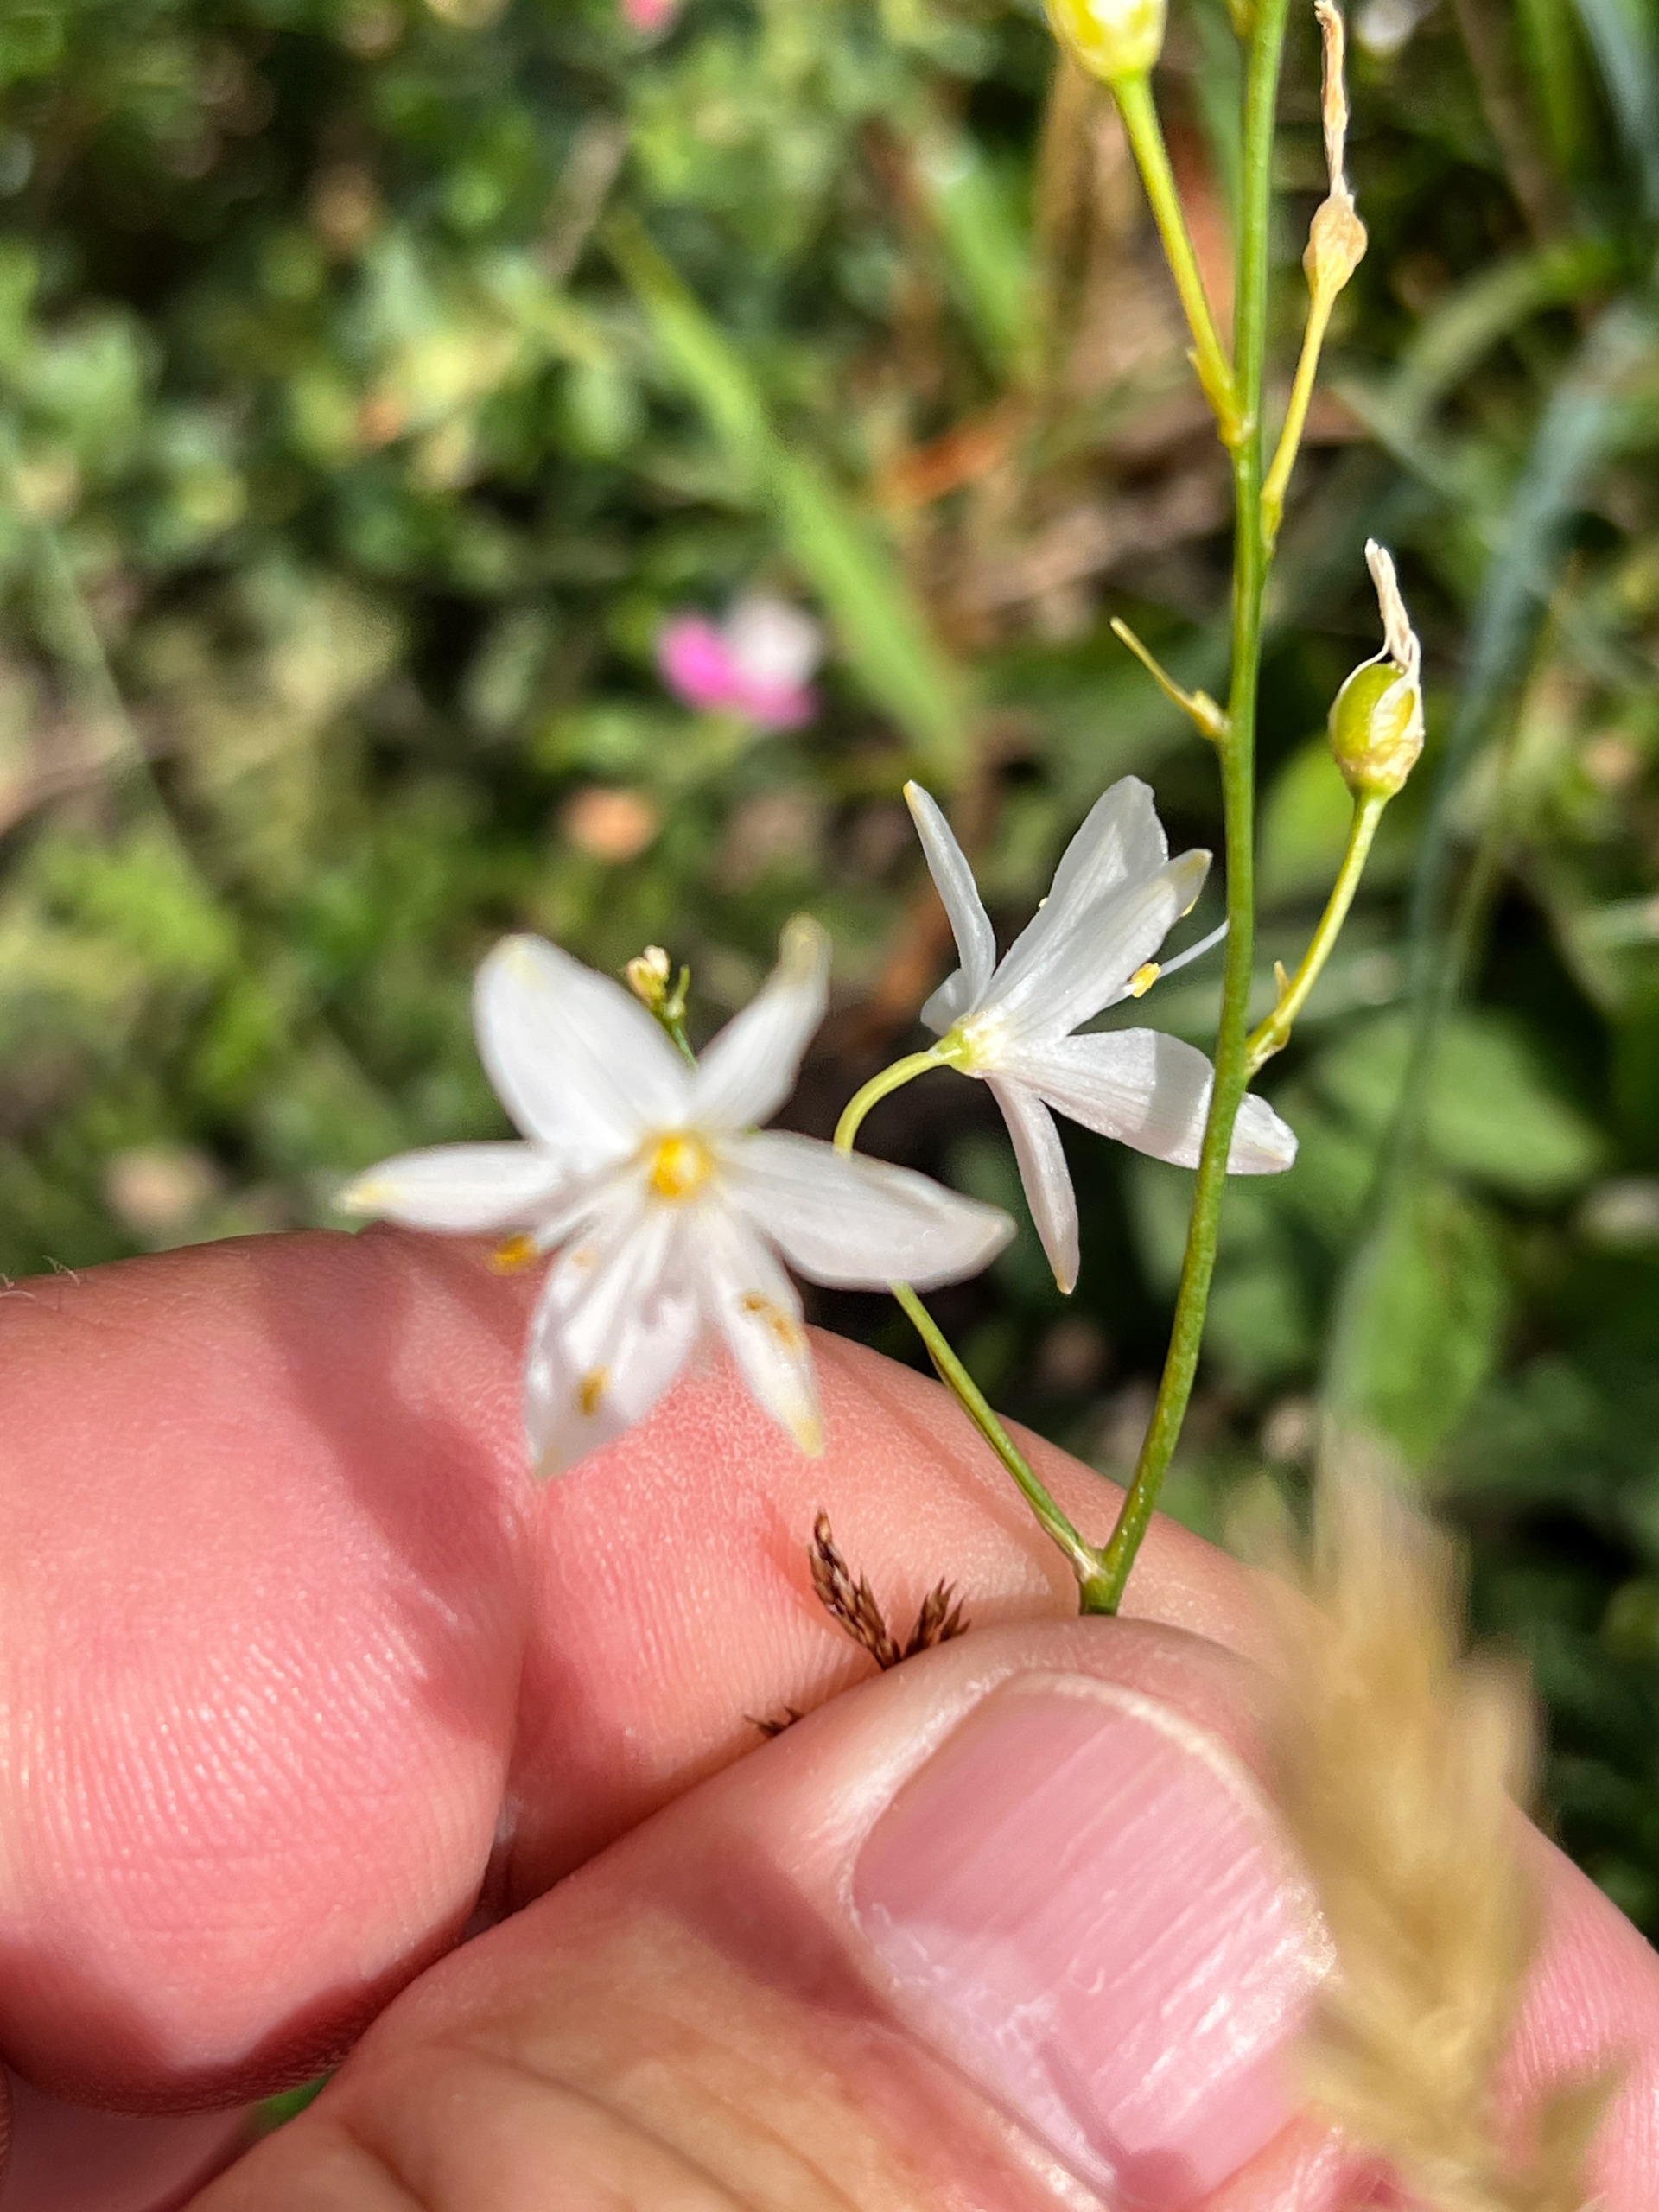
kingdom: Plantae
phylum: Tracheophyta
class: Liliopsida
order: Asparagales
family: Asparagaceae
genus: Anthericum
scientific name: Anthericum ramosum
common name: Grenet edderkopurt
